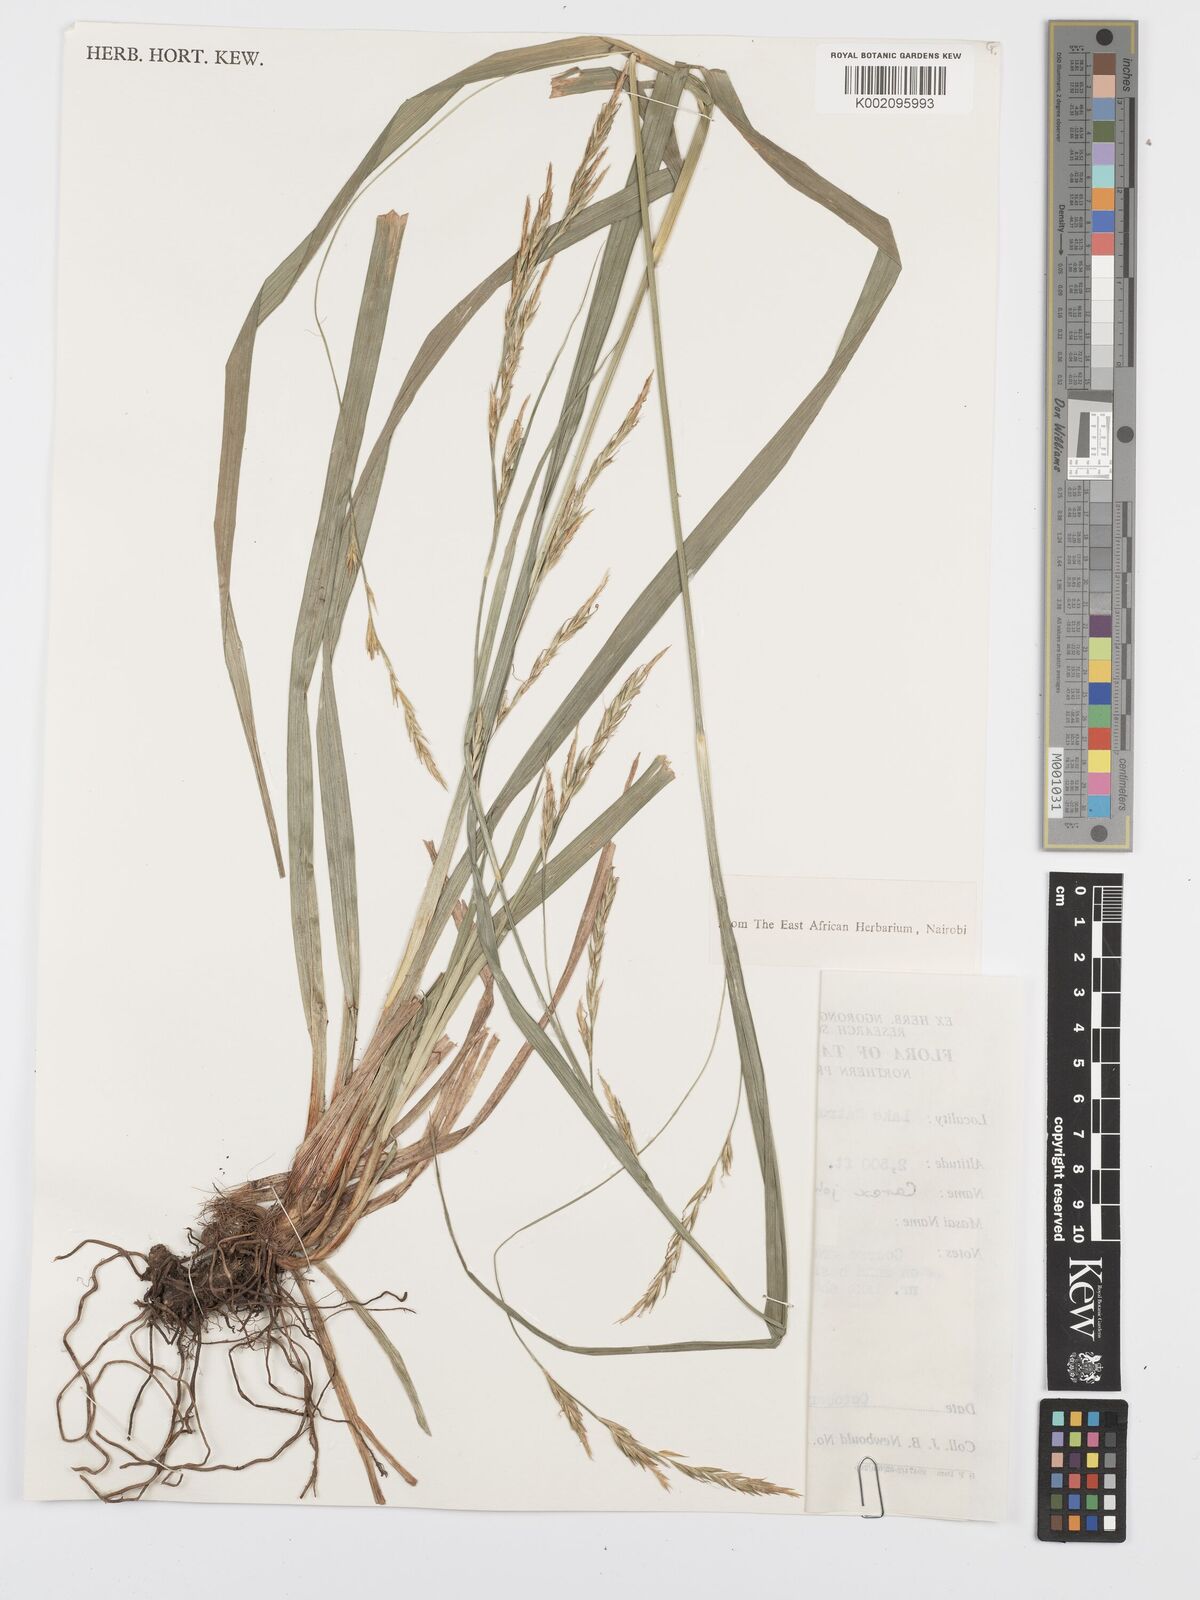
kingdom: Plantae
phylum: Tracheophyta
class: Liliopsida
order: Poales
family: Cyperaceae
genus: Carex
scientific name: Carex johnstonii
